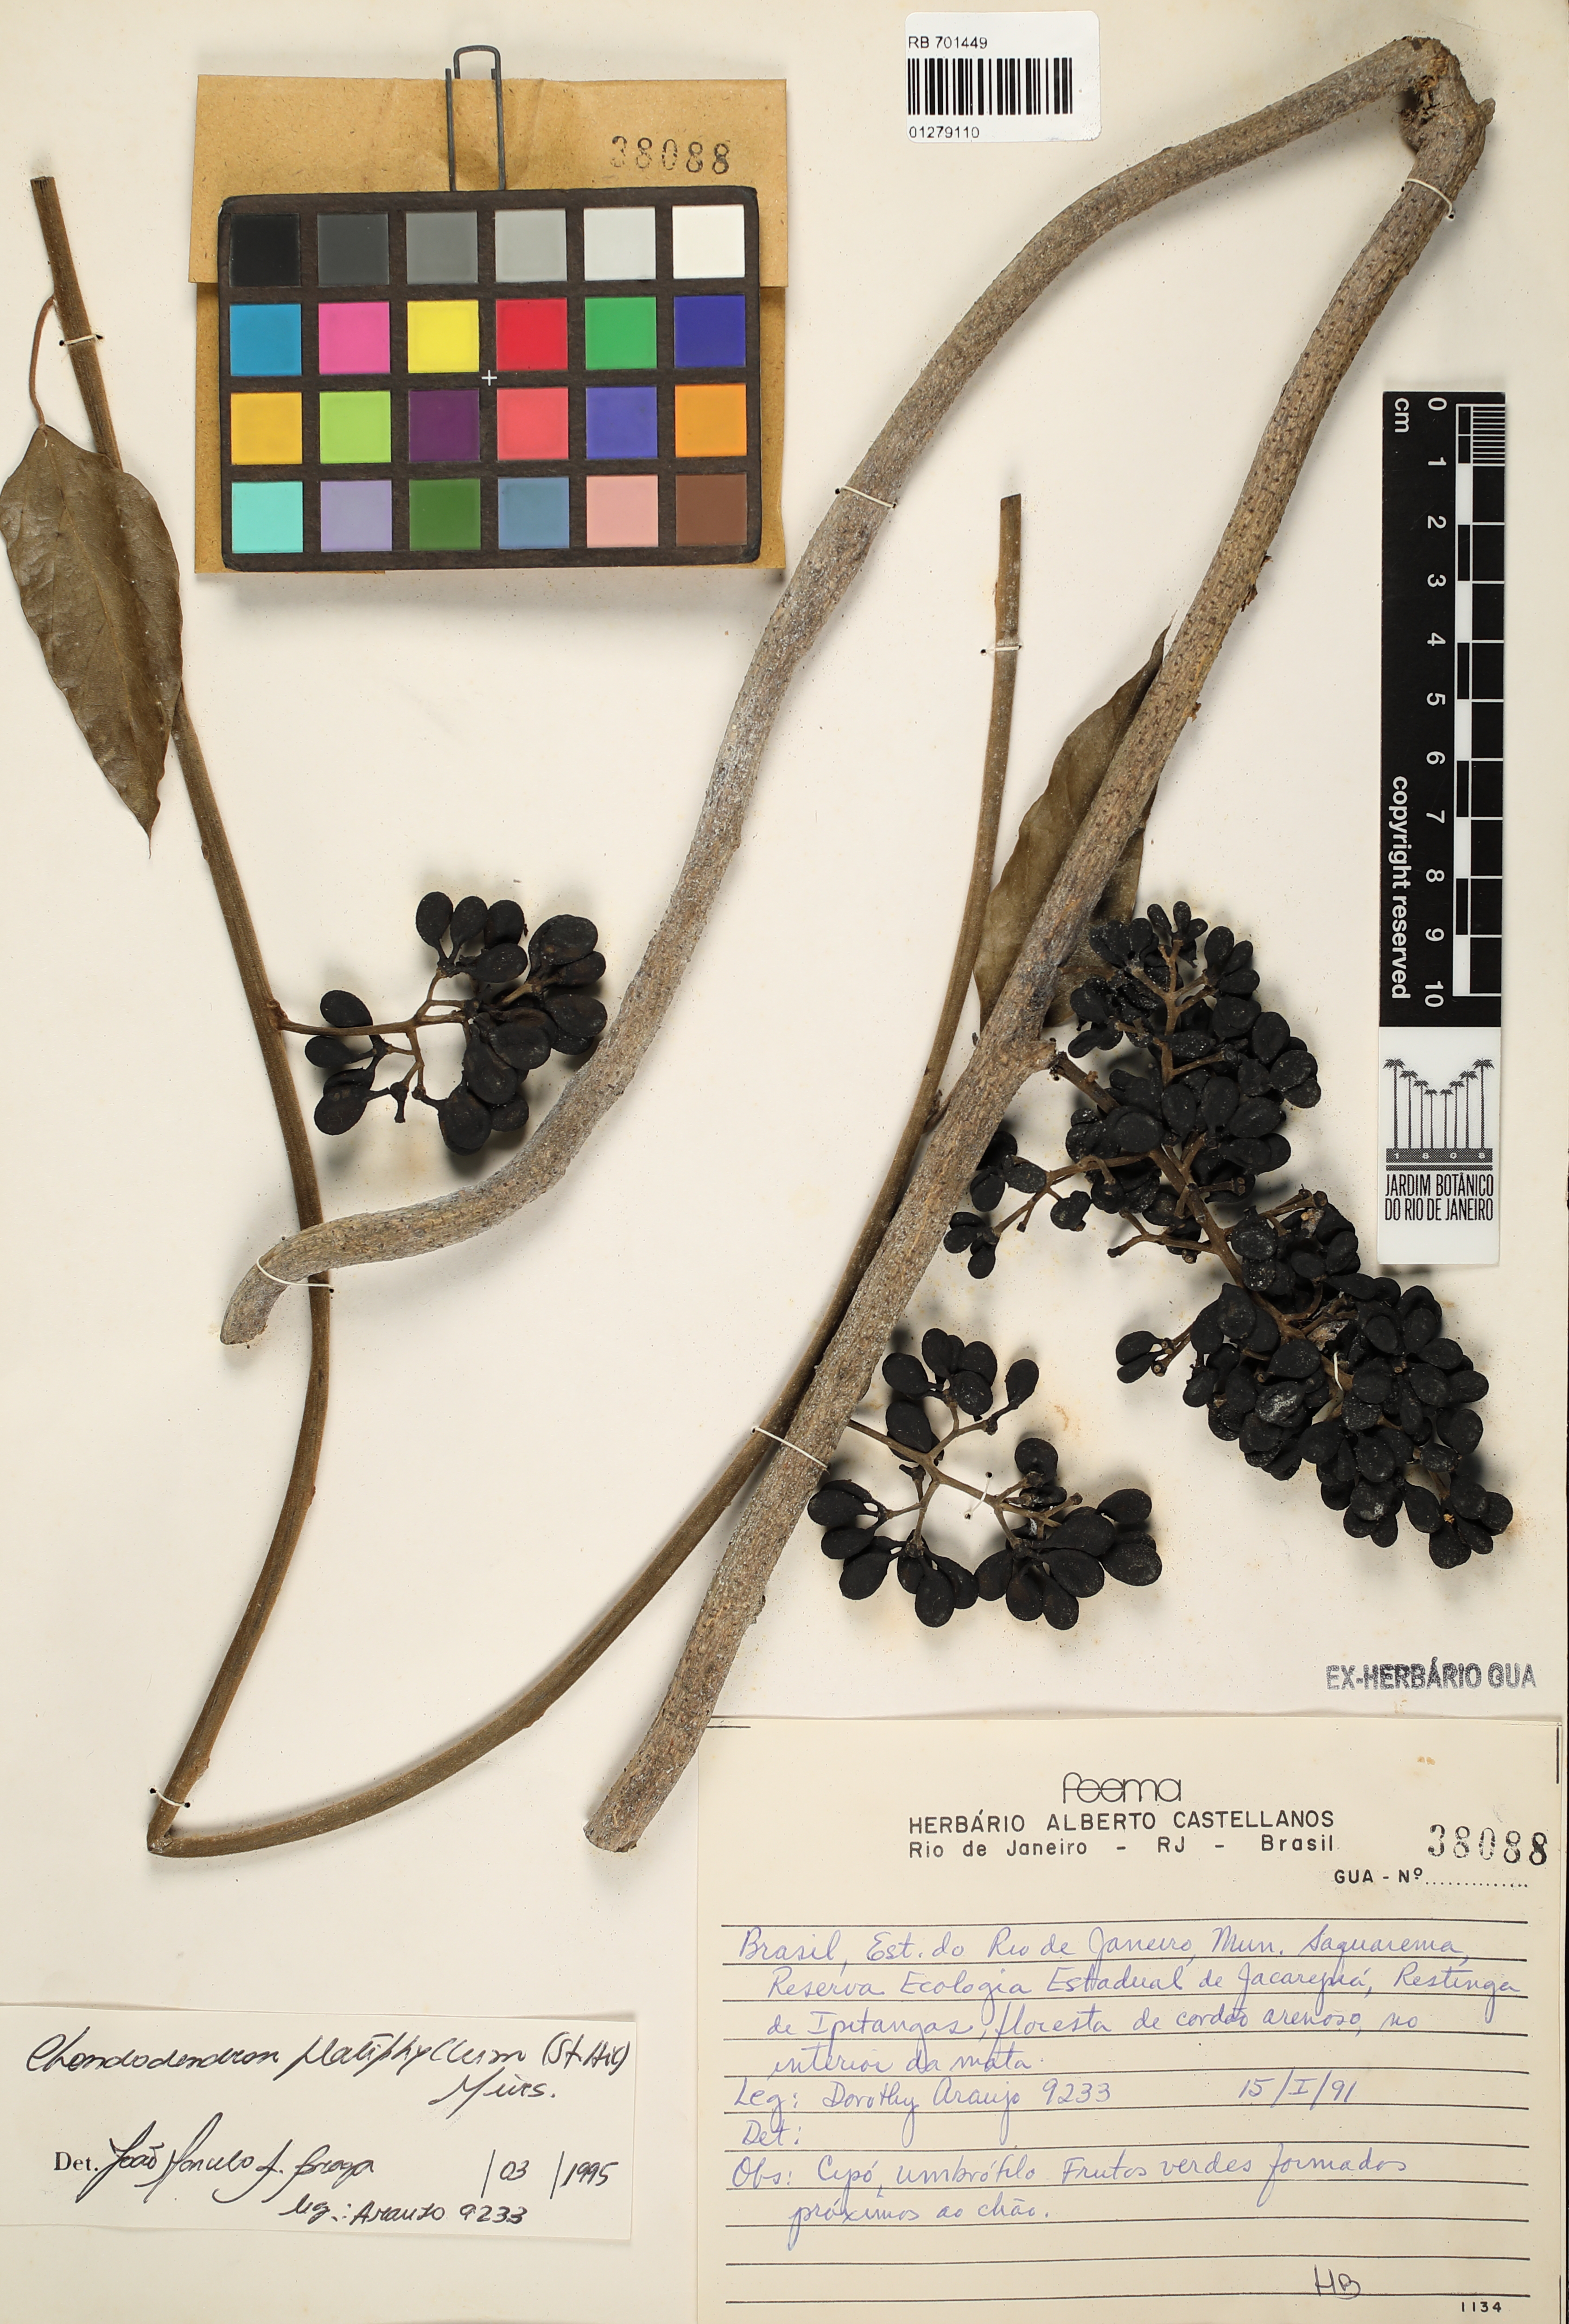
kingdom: Plantae
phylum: Tracheophyta
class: Magnoliopsida
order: Ranunculales
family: Menispermaceae
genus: Chondrodendron
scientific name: Chondrodendron platyphyllum
